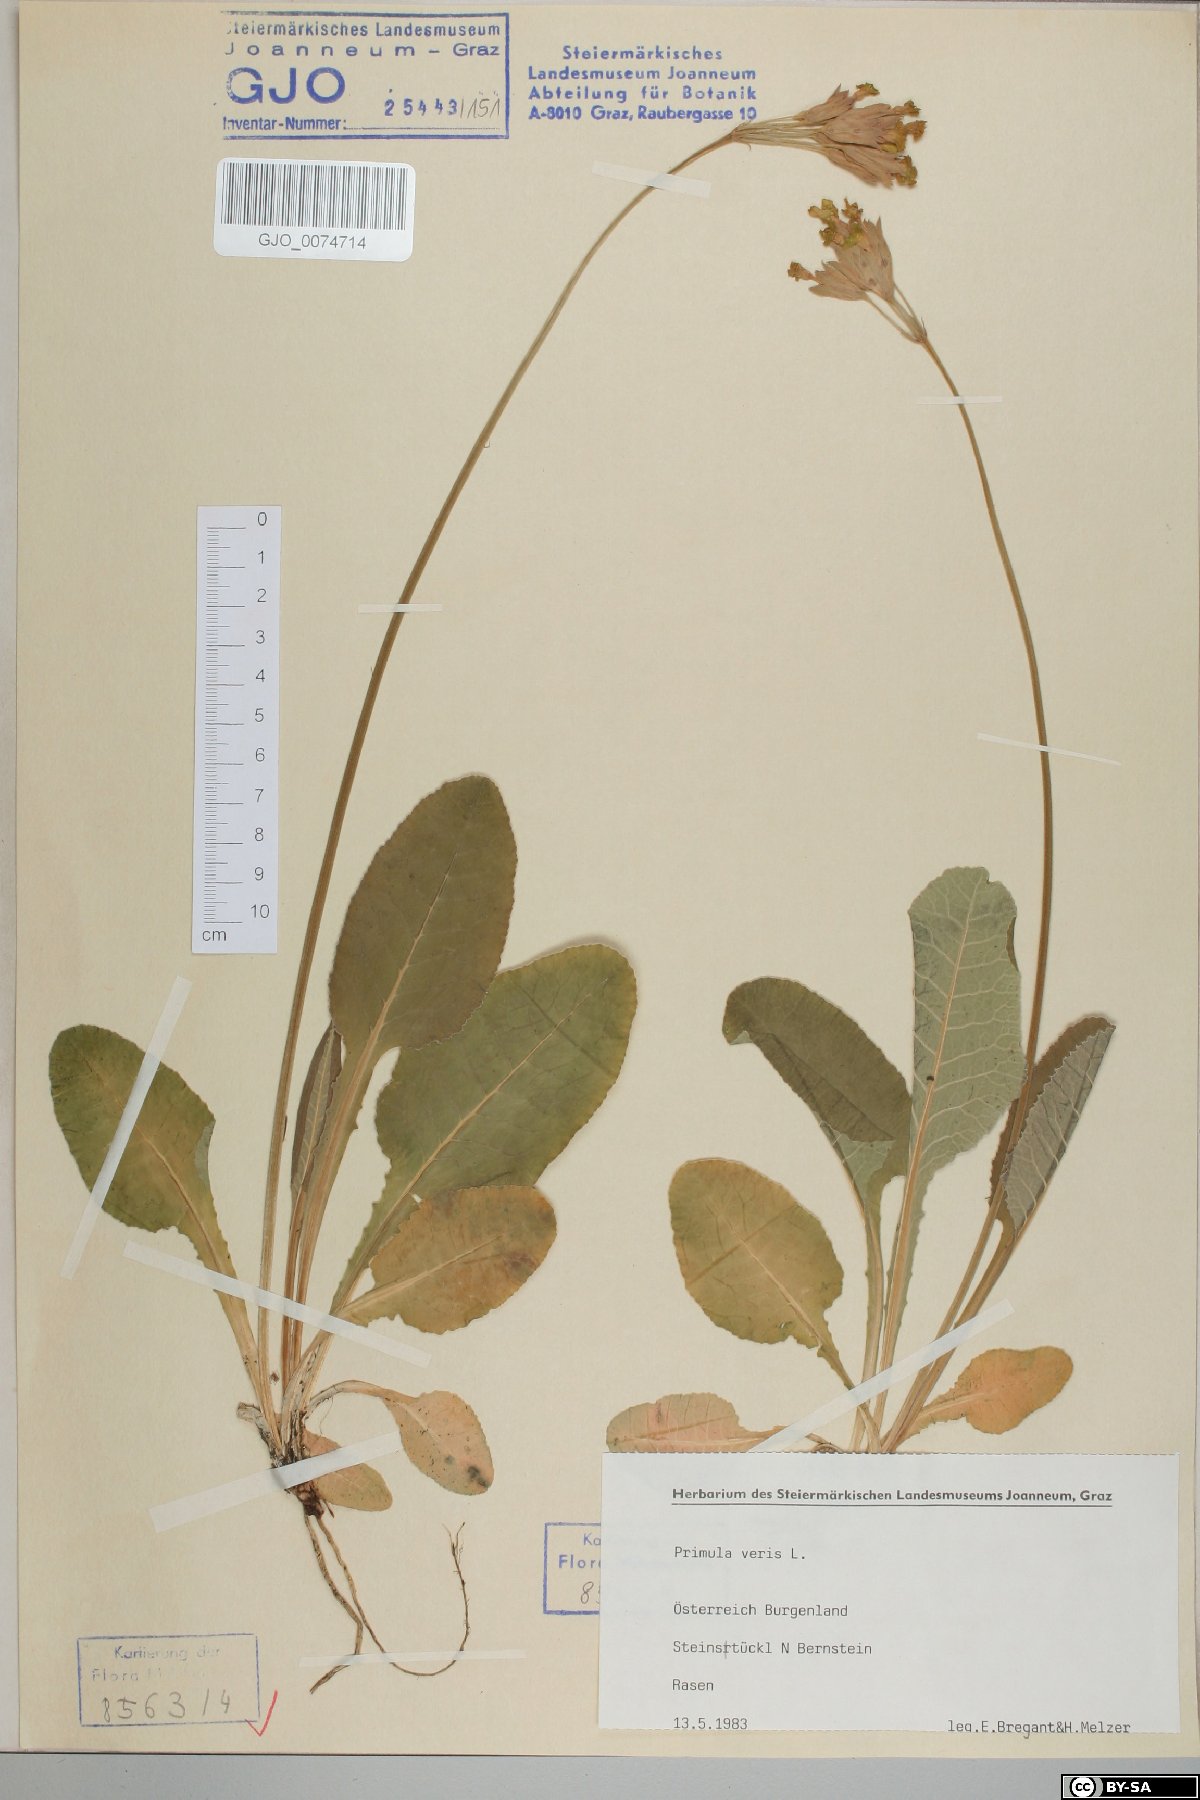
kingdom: Plantae
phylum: Tracheophyta
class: Magnoliopsida
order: Ericales
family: Primulaceae
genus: Primula
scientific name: Primula veris
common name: Cowslip
